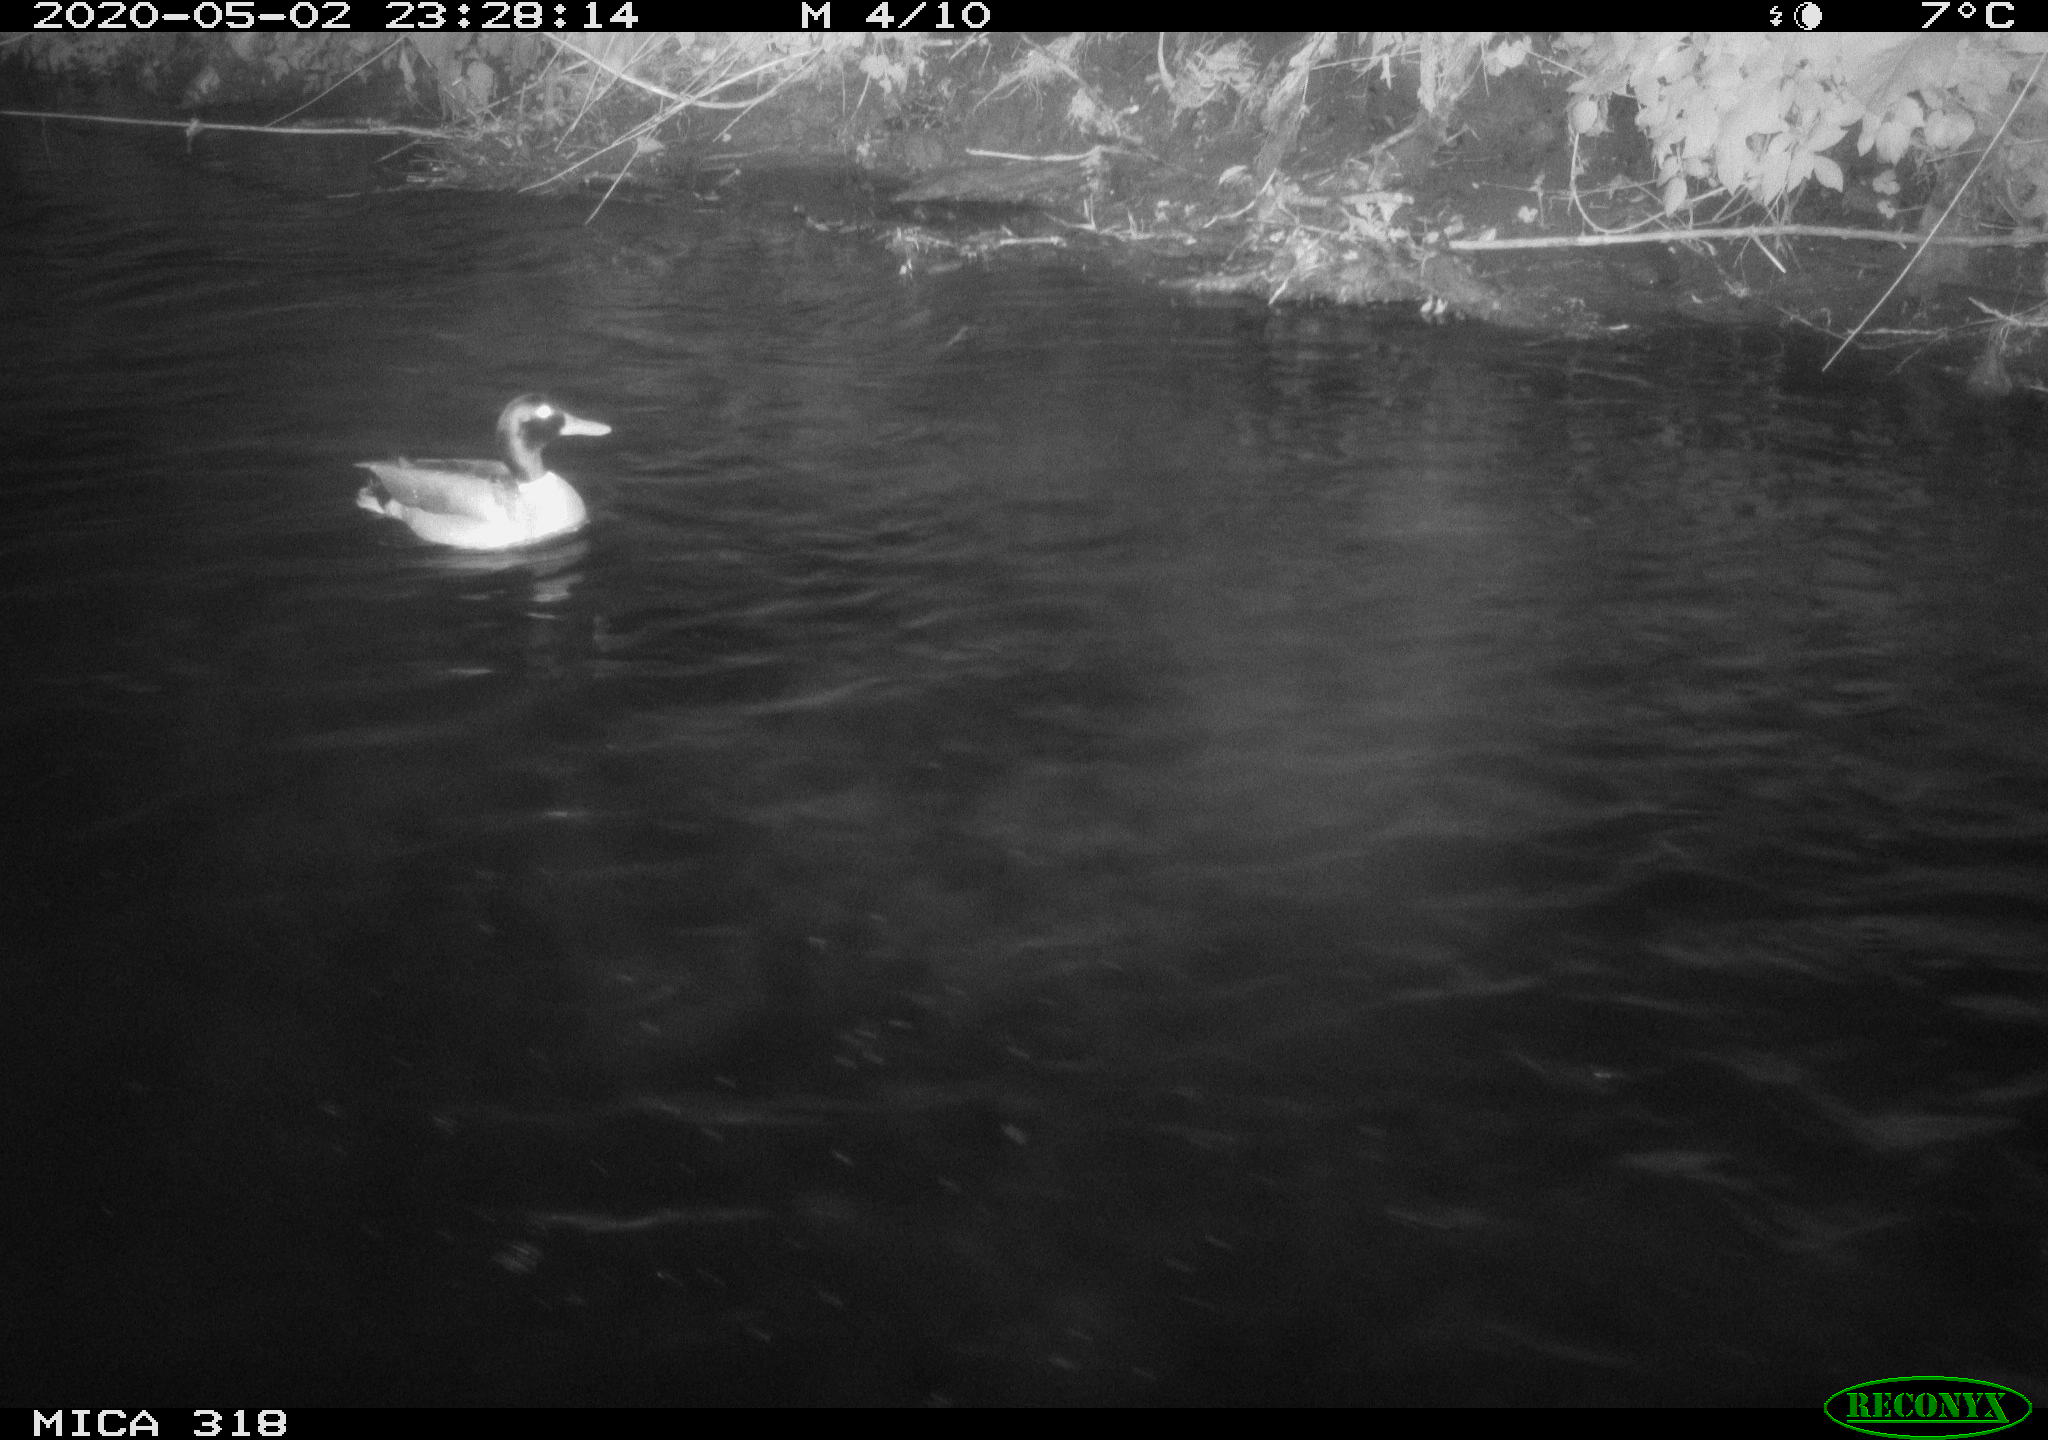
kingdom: Animalia
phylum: Chordata
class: Aves
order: Anseriformes
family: Anatidae
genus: Anas
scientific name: Anas platyrhynchos
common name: Mallard
